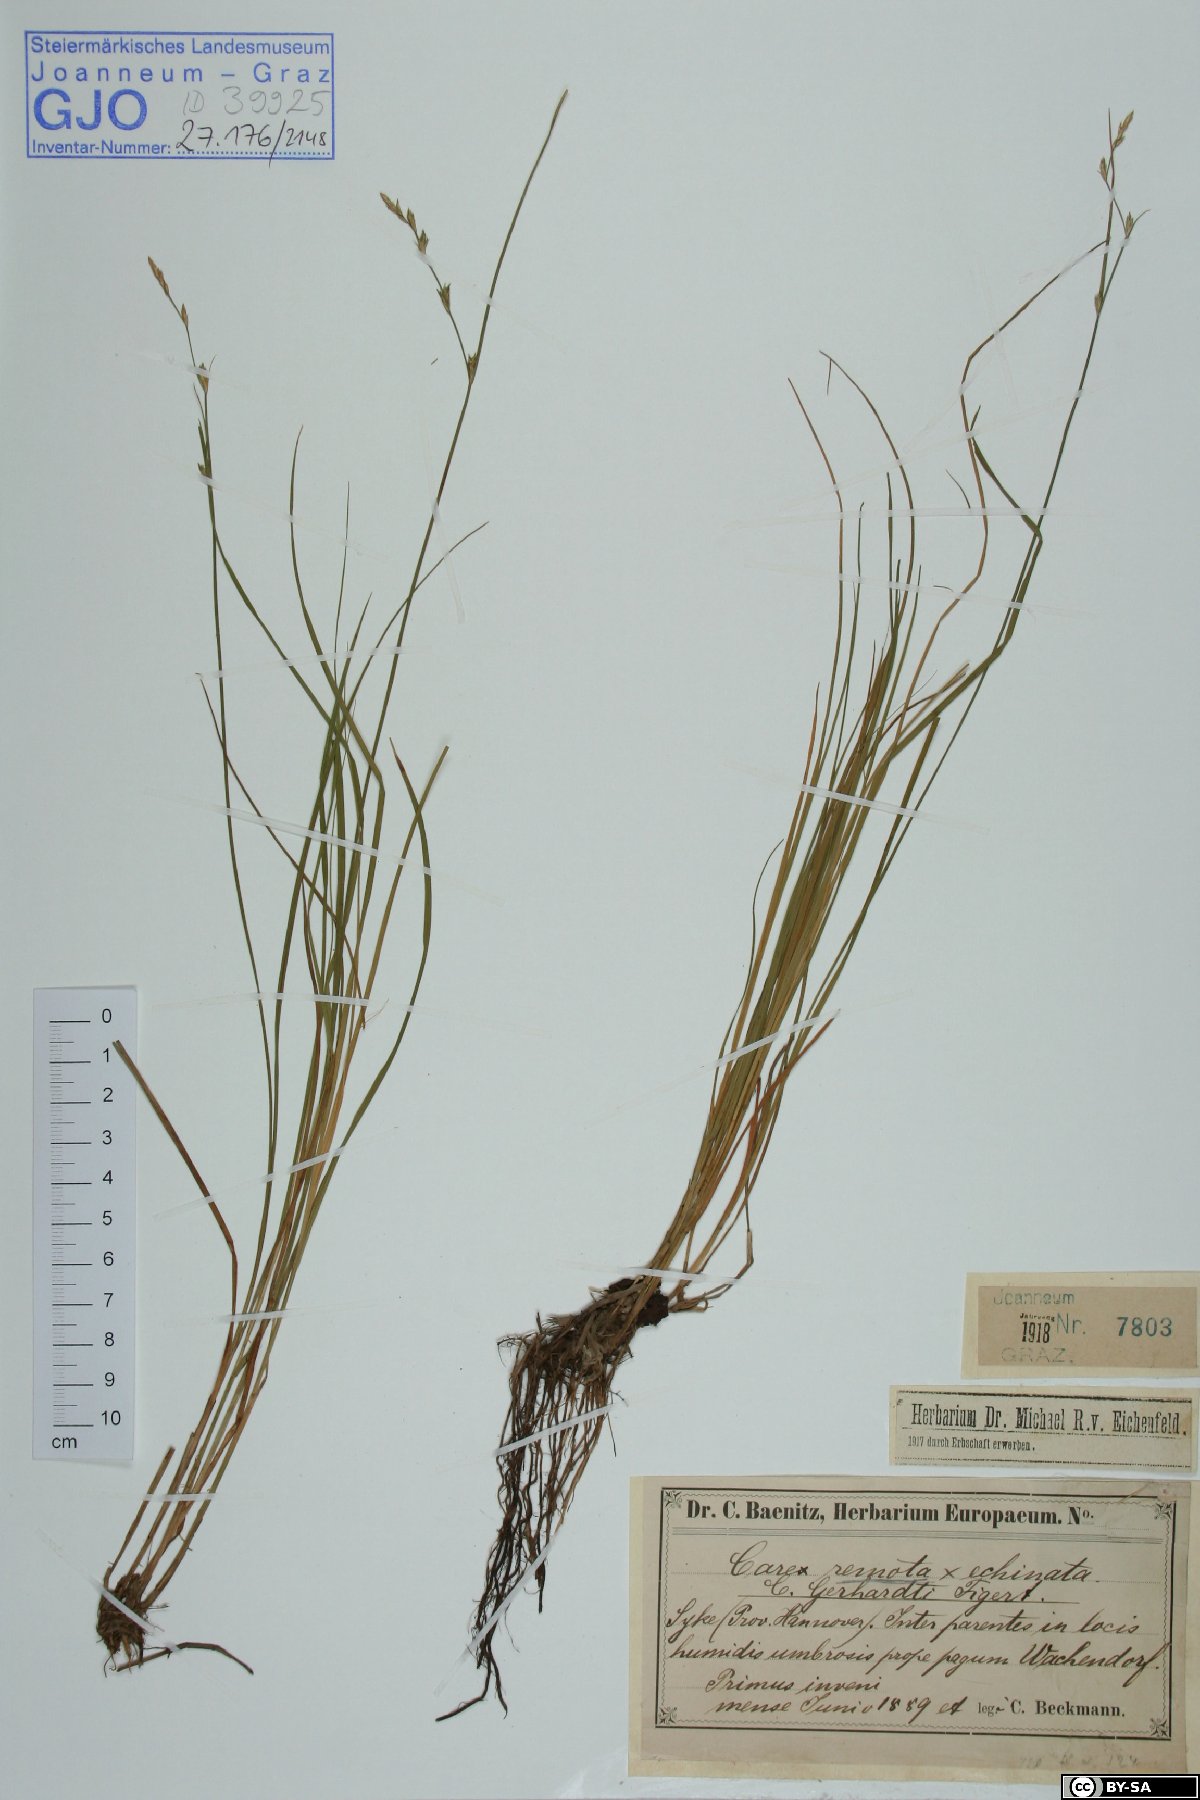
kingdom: Plantae
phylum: Tracheophyta
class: Liliopsida
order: Poales
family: Cyperaceae
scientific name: Cyperaceae
